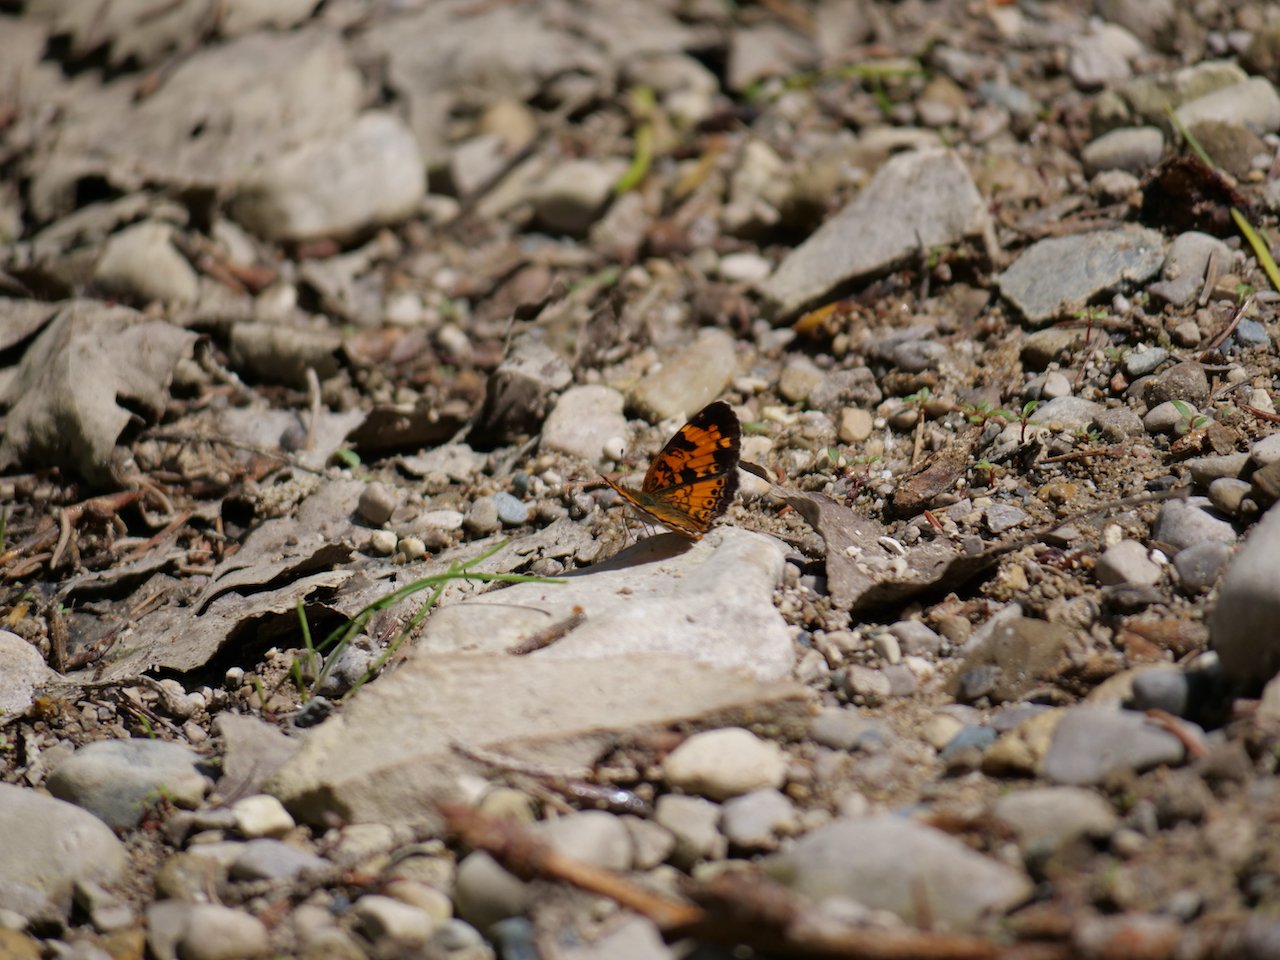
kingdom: Animalia
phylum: Arthropoda
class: Insecta
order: Lepidoptera
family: Nymphalidae
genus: Phyciodes
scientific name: Phyciodes tharos
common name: Northern Crescent
